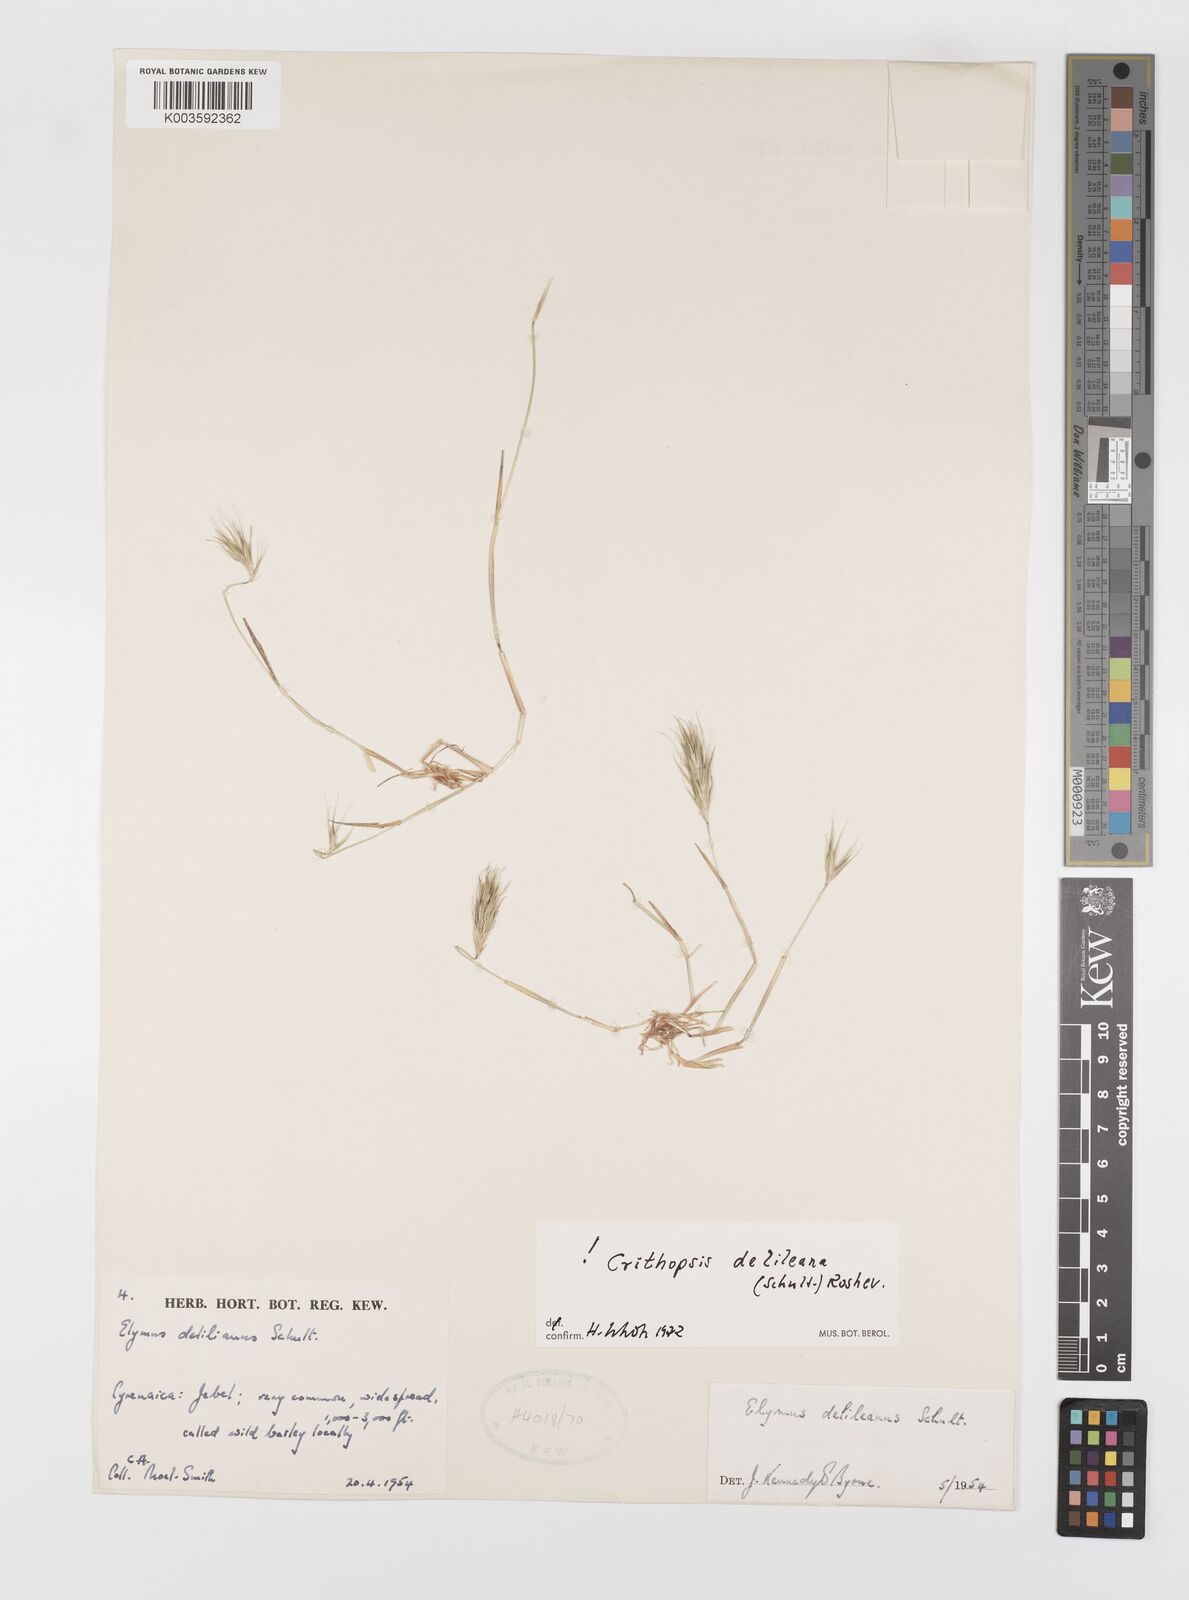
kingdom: Plantae
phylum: Tracheophyta
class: Liliopsida
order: Poales
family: Poaceae
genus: Crithopsis
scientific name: Crithopsis delileana
